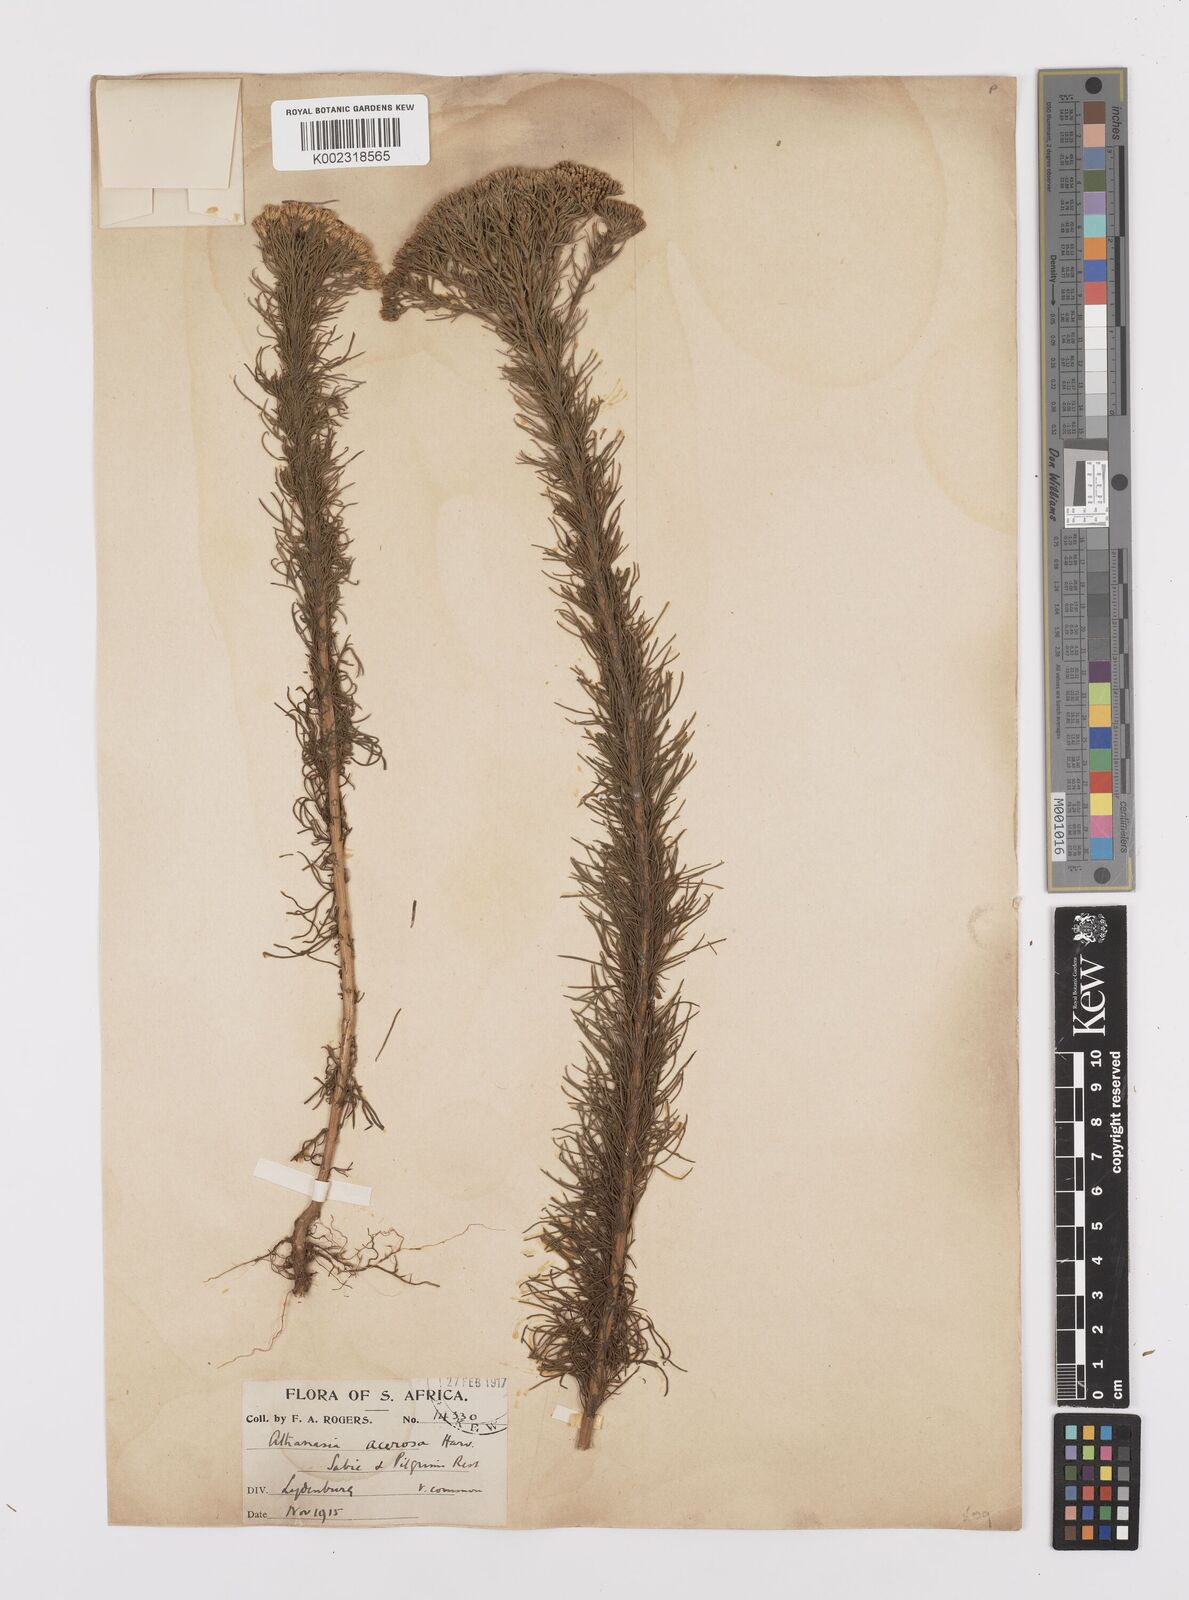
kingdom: Plantae
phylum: Tracheophyta
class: Magnoliopsida
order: Asterales
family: Asteraceae
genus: Phymaspermum
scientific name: Phymaspermum acerosum
